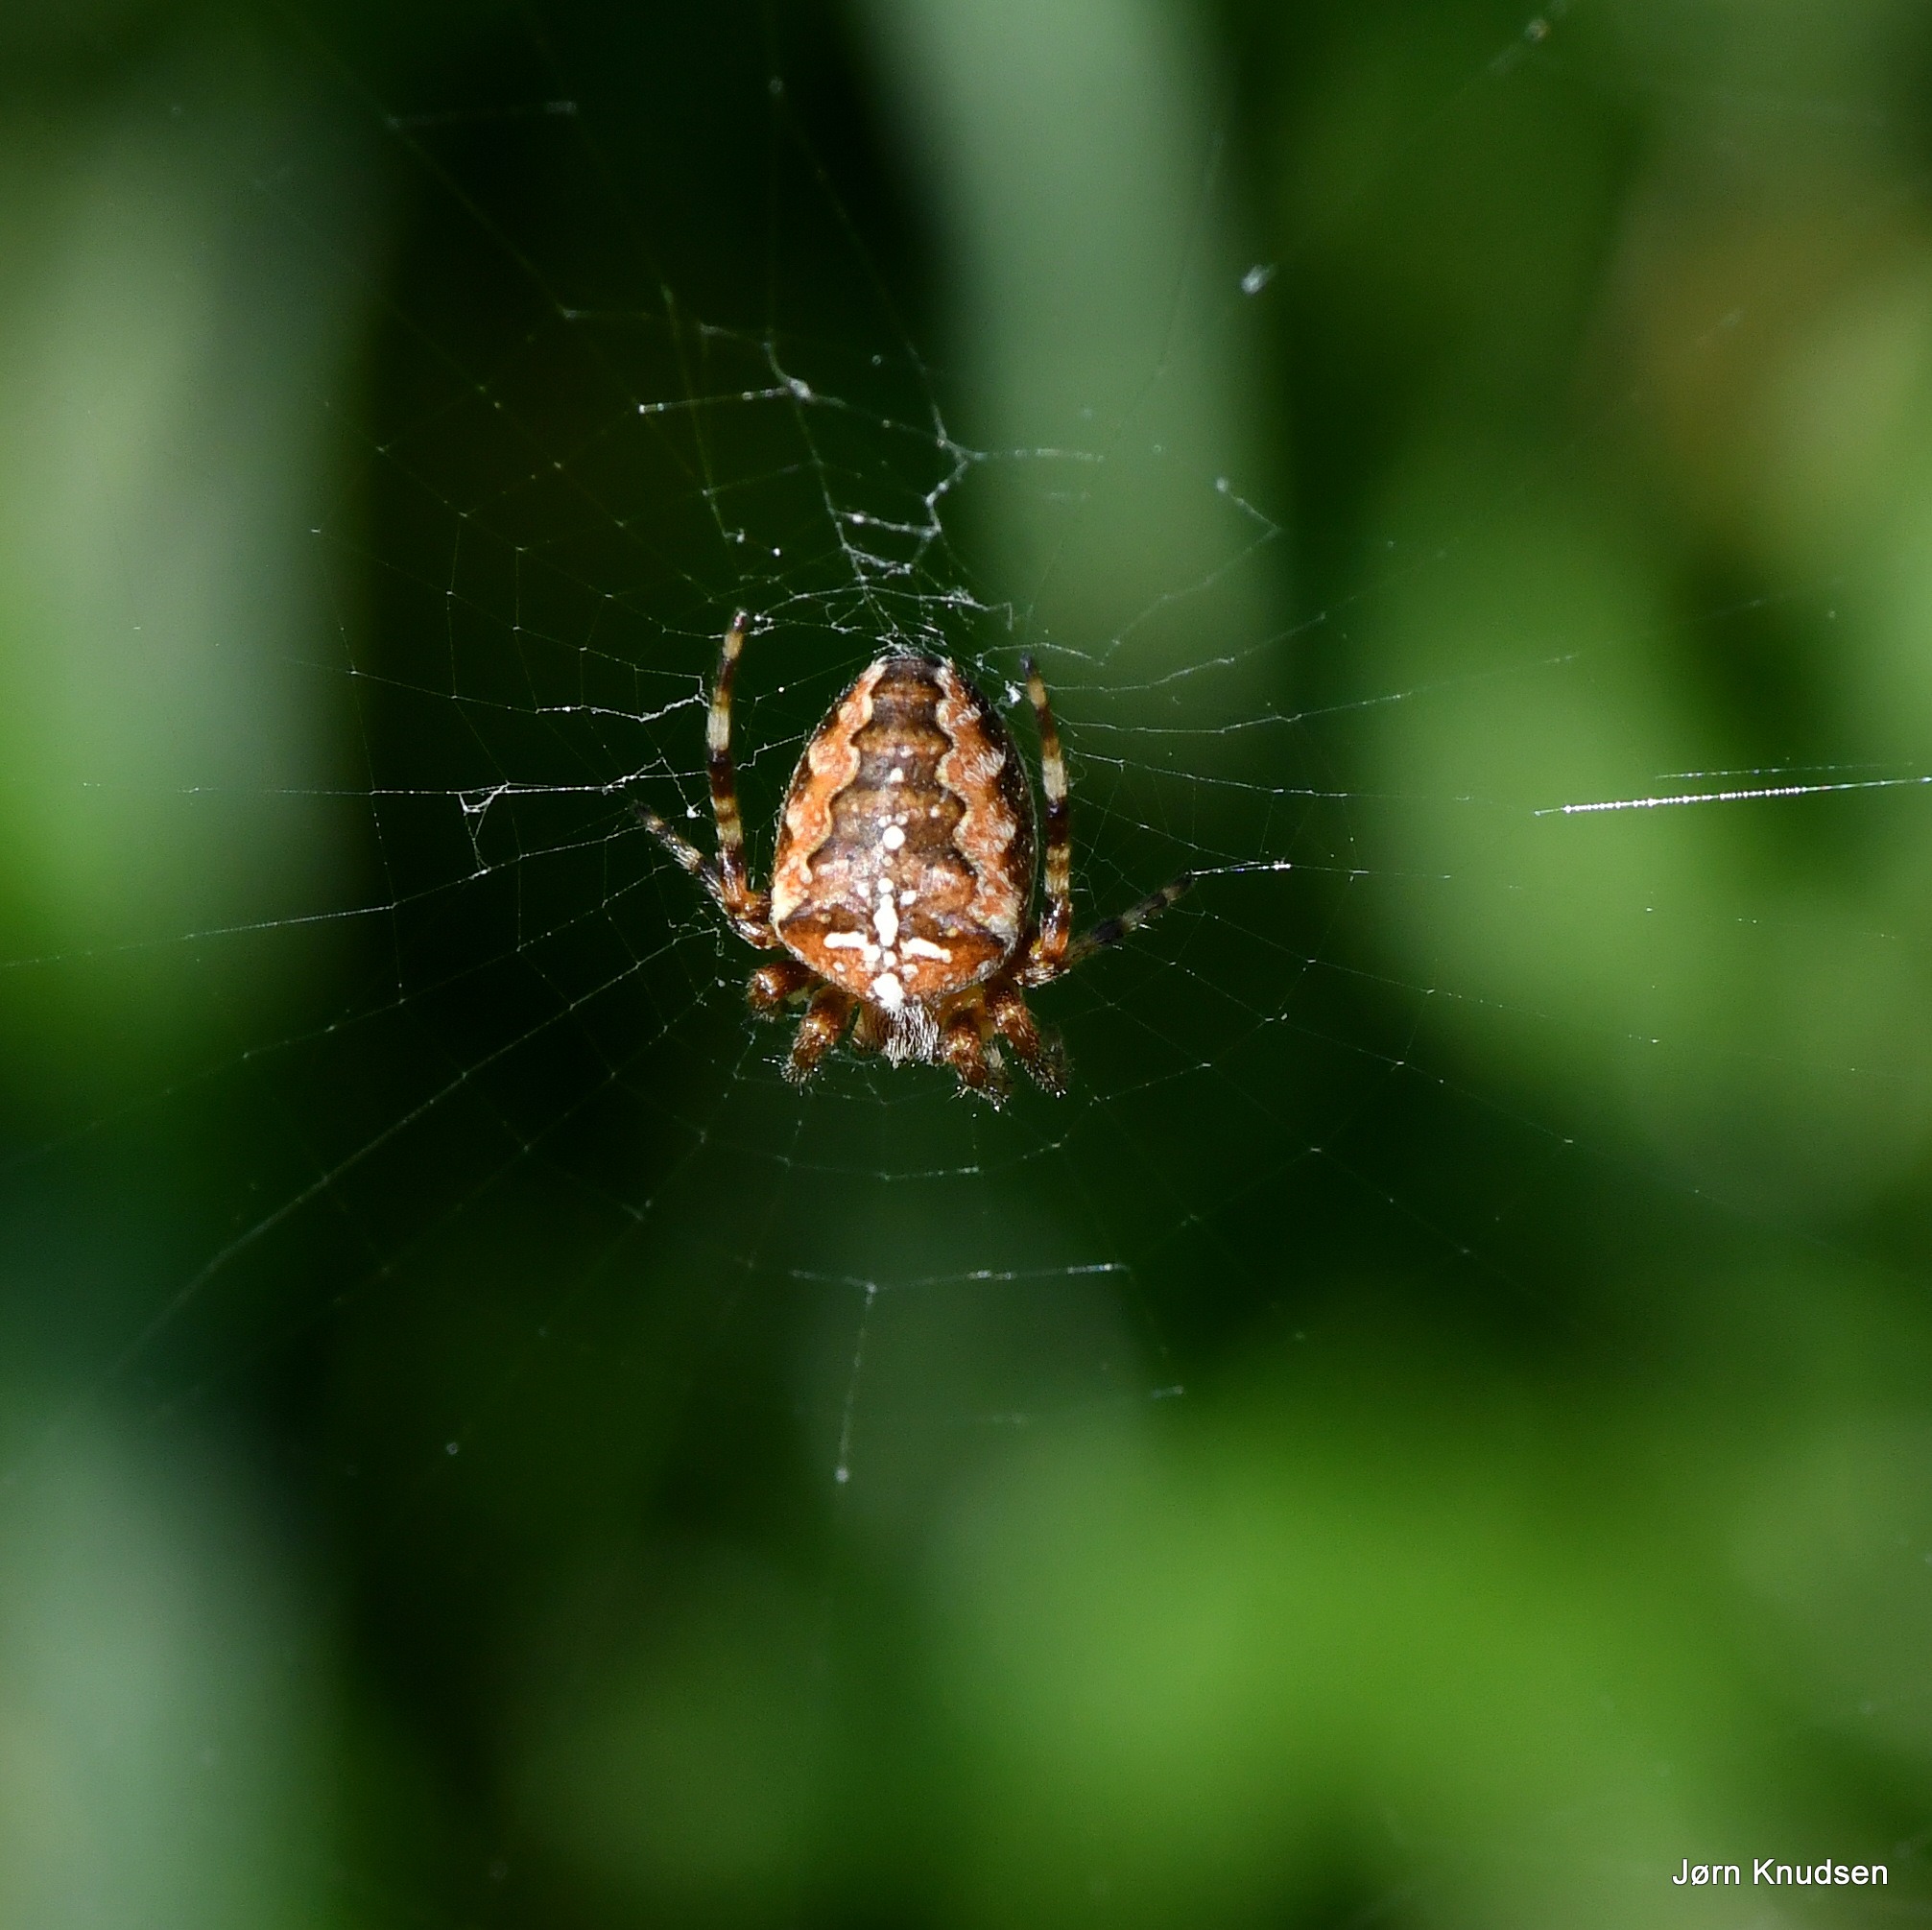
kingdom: Animalia
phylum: Arthropoda
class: Arachnida
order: Araneae
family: Araneidae
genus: Araneus
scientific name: Araneus diadematus
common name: Korsedderkop
